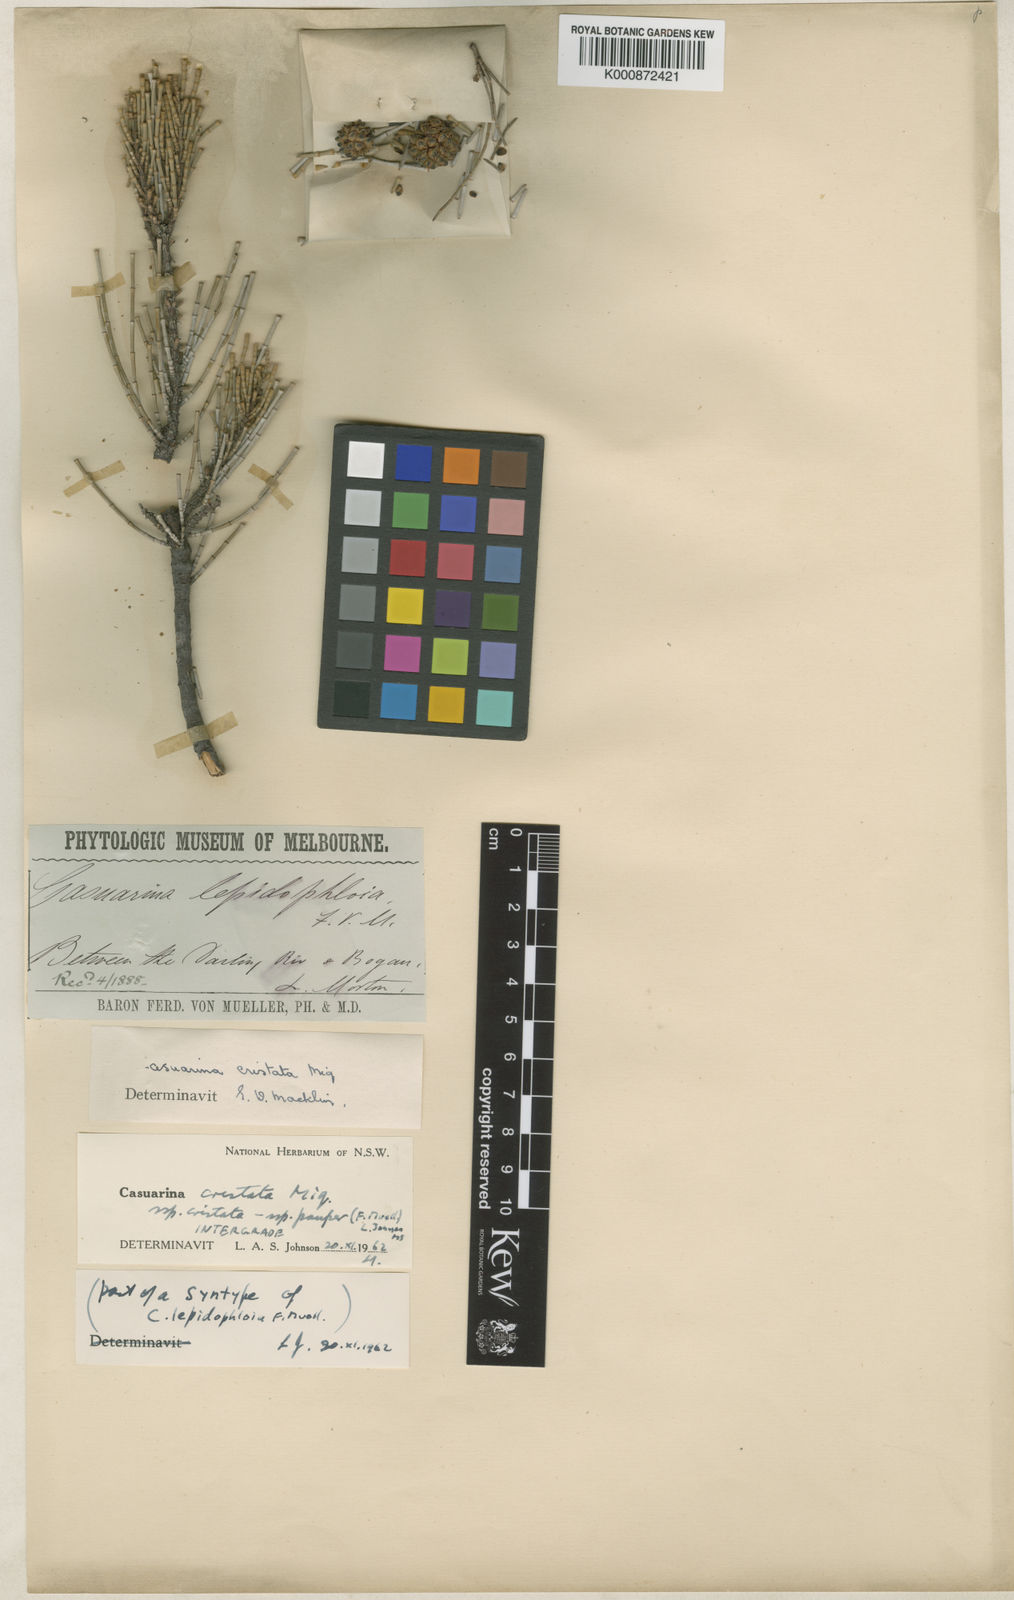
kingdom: Plantae
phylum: Tracheophyta
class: Magnoliopsida
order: Fagales
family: Casuarinaceae
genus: Casuarina
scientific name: Casuarina pauper
